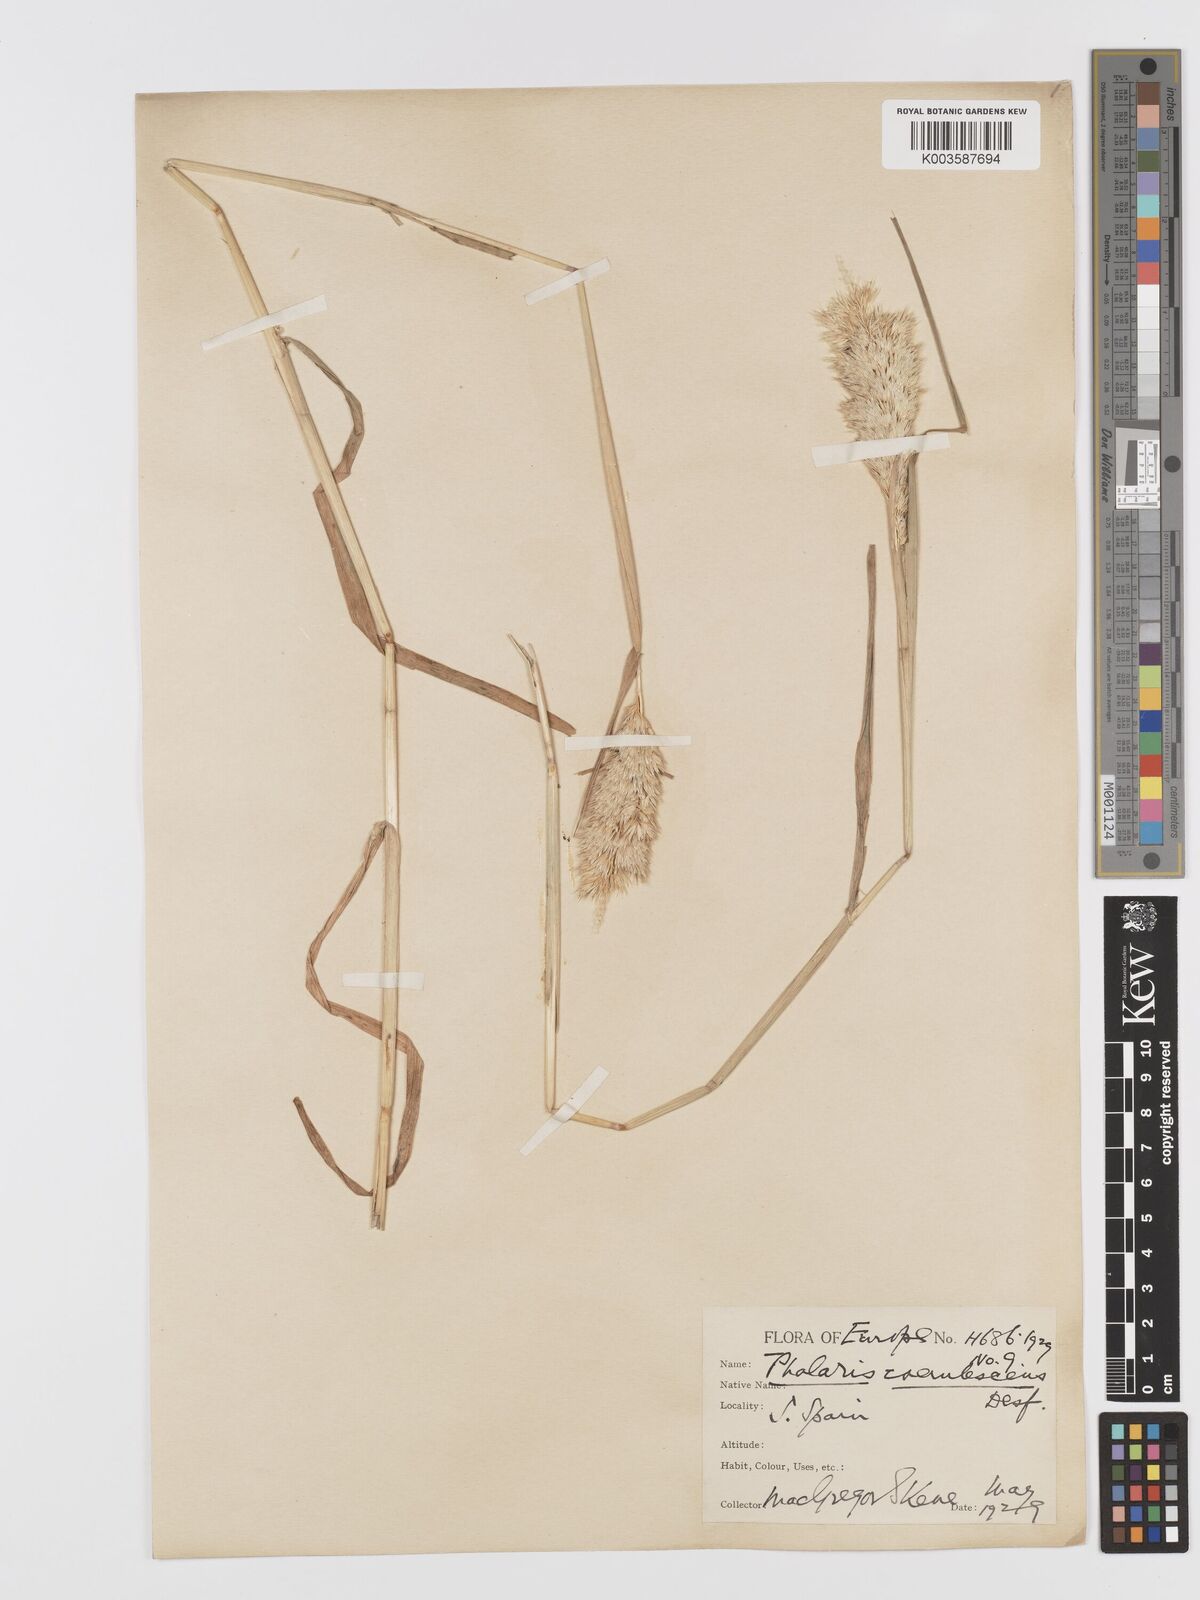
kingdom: Plantae
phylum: Tracheophyta
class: Liliopsida
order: Poales
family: Poaceae
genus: Phalaris
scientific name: Phalaris coerulescens
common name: Sunolgrass
